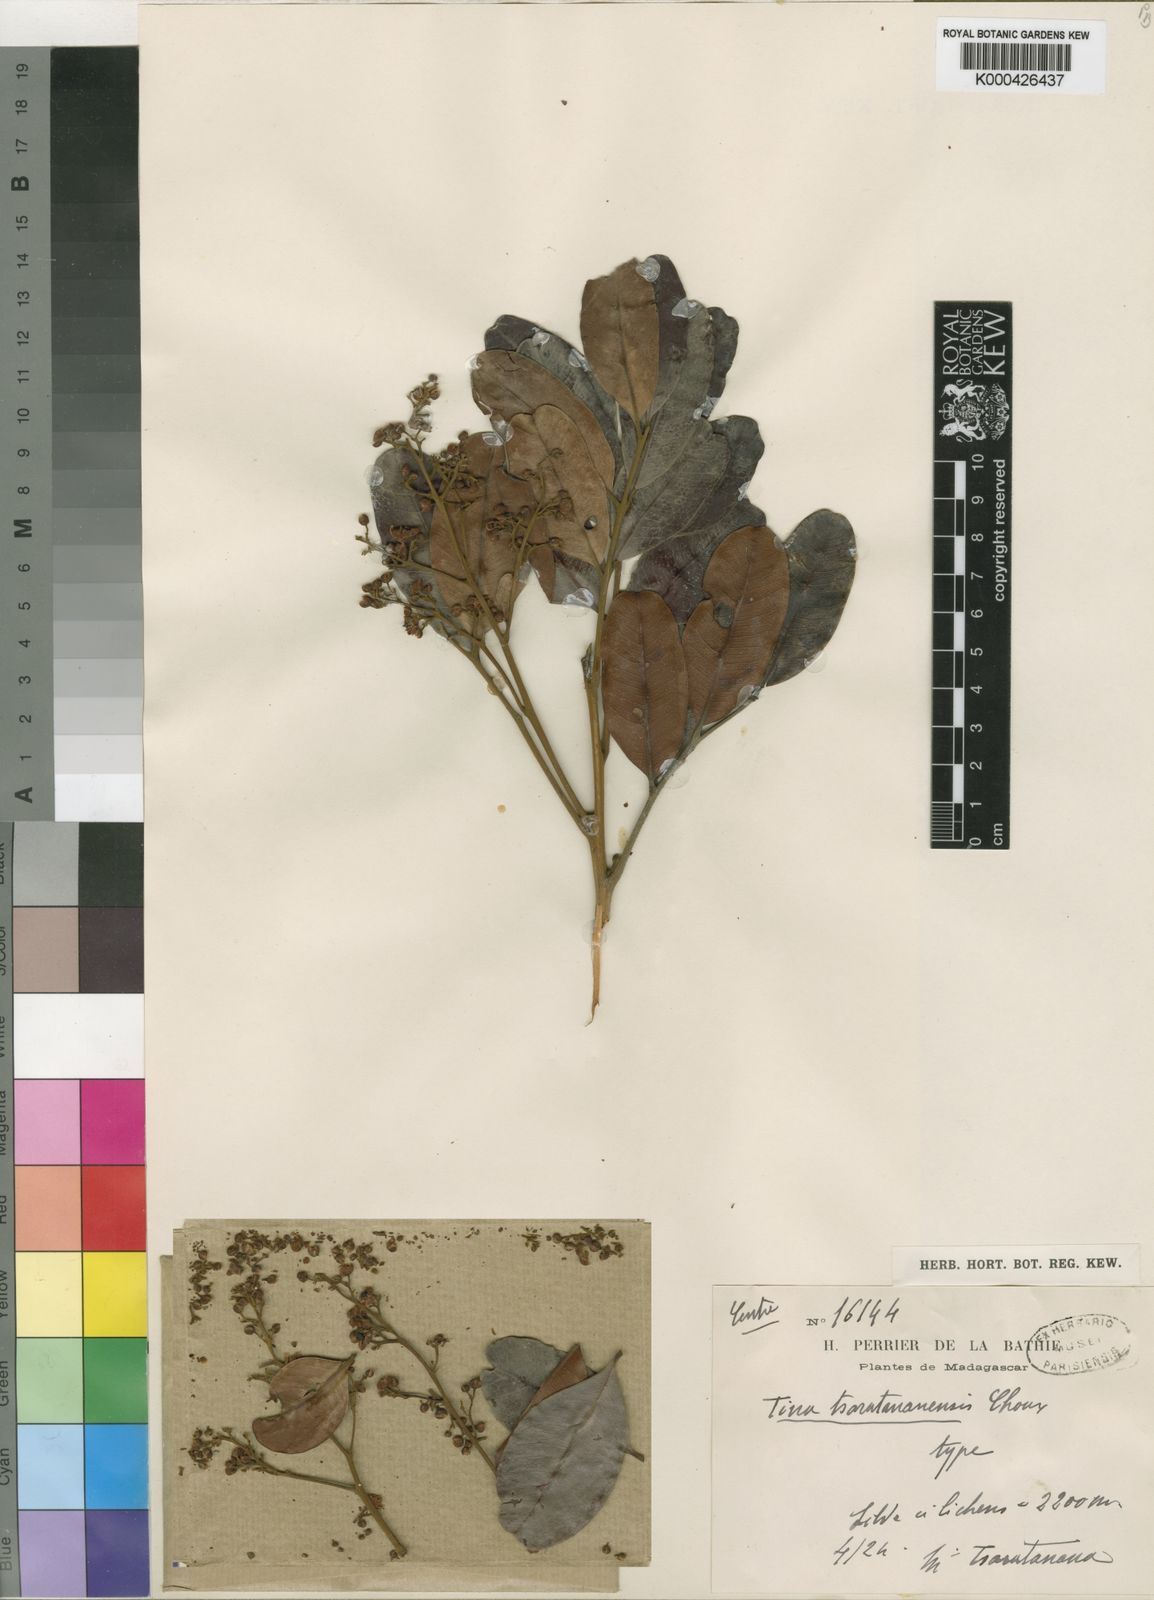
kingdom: Plantae
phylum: Tracheophyta
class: Magnoliopsida
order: Sapindales
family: Sapindaceae
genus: Tina
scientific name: Tina isoneura
